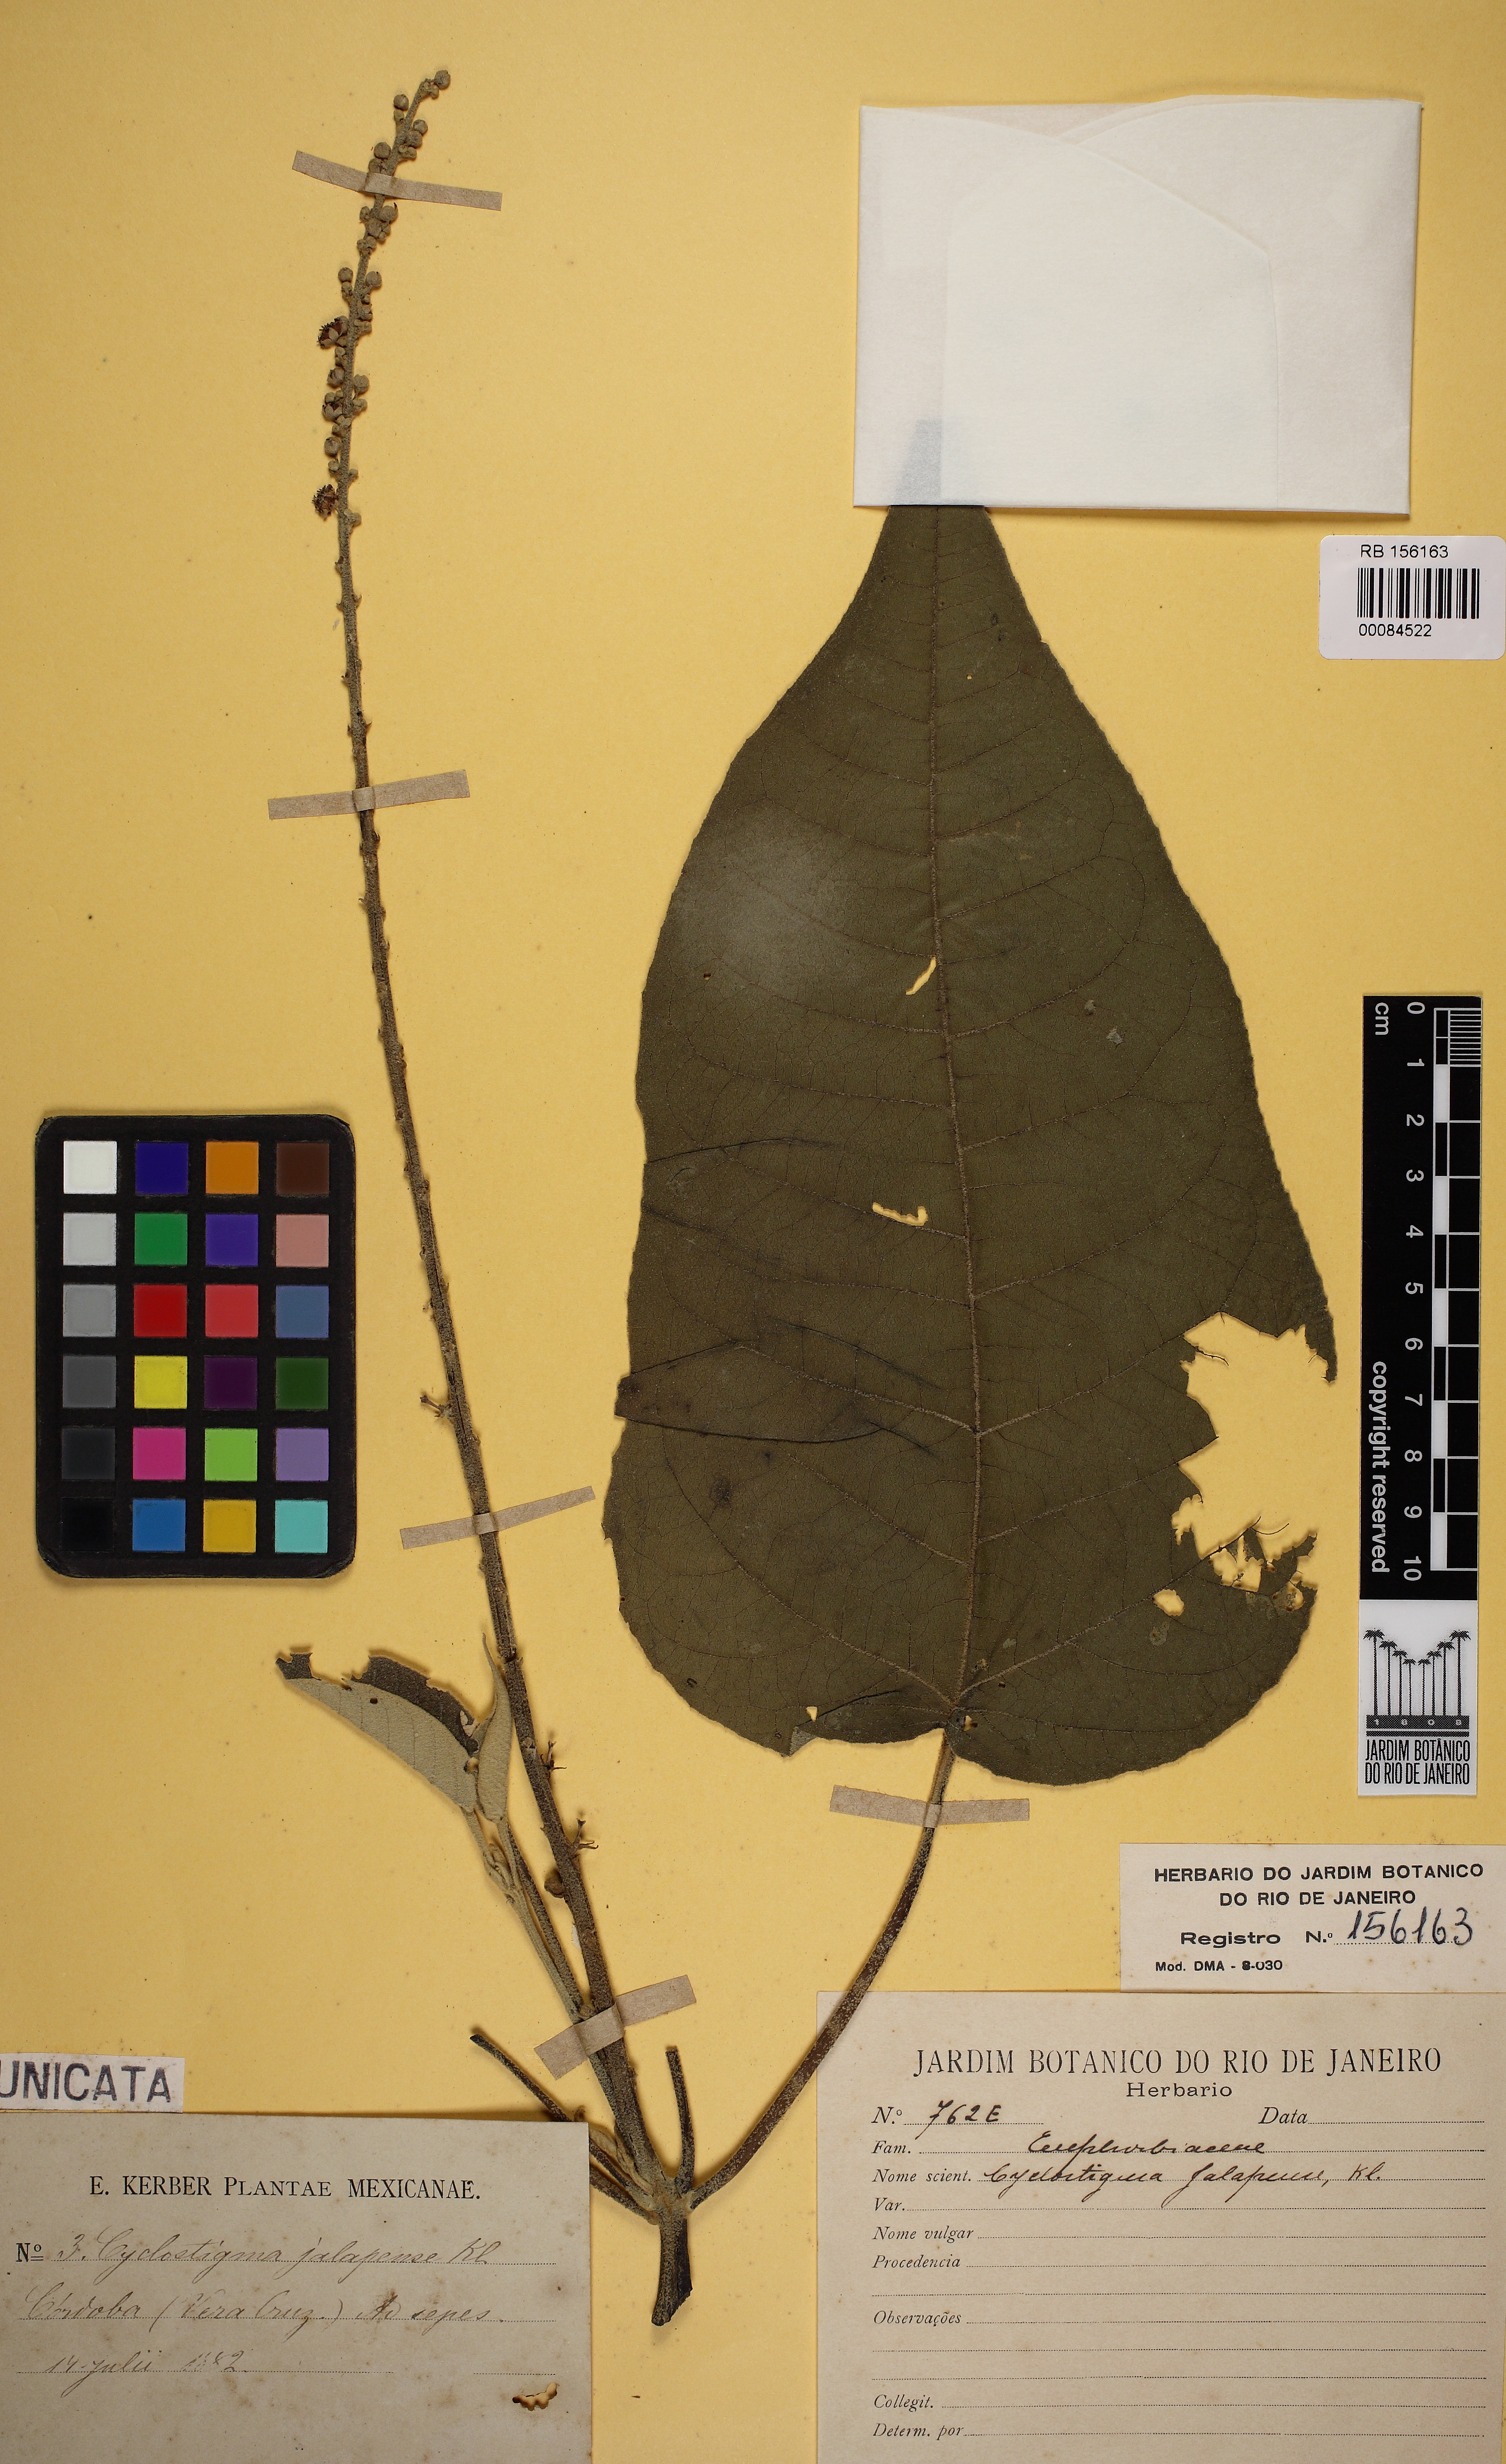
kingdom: Plantae
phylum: Tracheophyta
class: Magnoliopsida
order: Malpighiales
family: Euphorbiaceae
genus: Croton
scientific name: Croton
